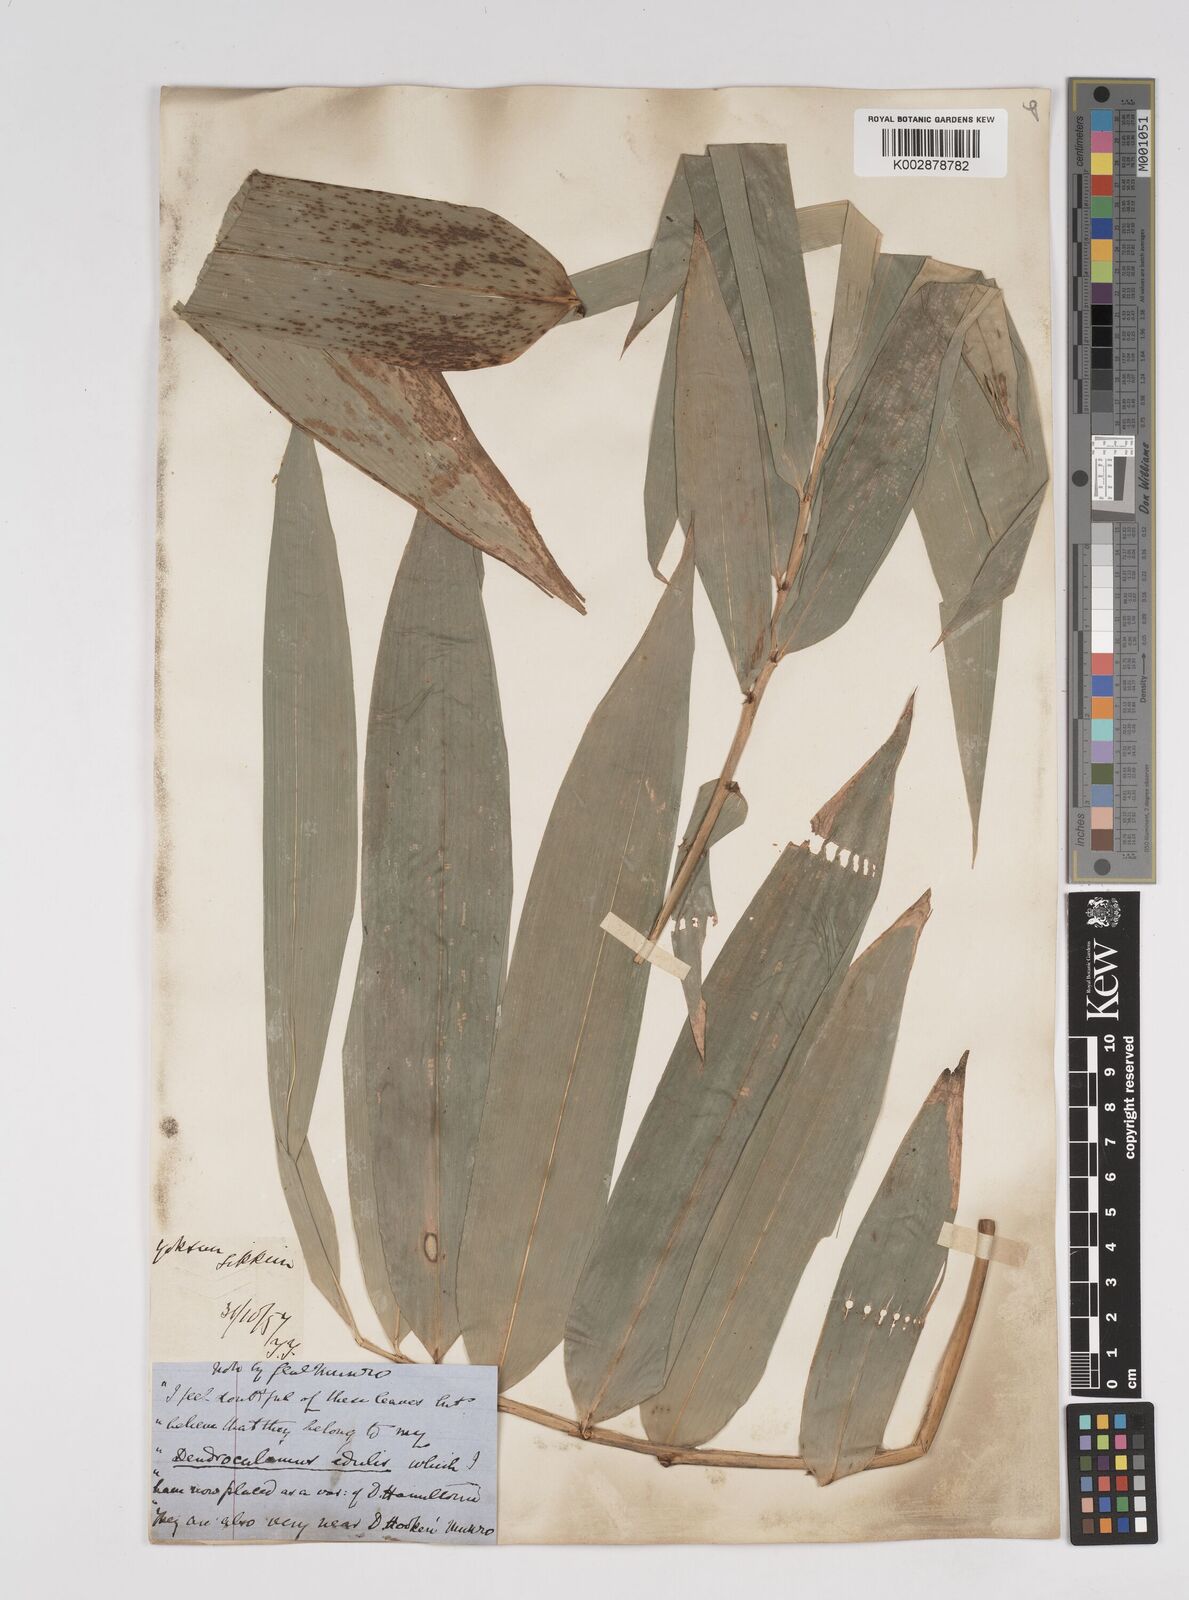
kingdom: Plantae
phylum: Tracheophyta
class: Liliopsida
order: Poales
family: Poaceae
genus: Dendrocalamus
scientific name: Dendrocalamus hamiltonii
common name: Tama bamboo
